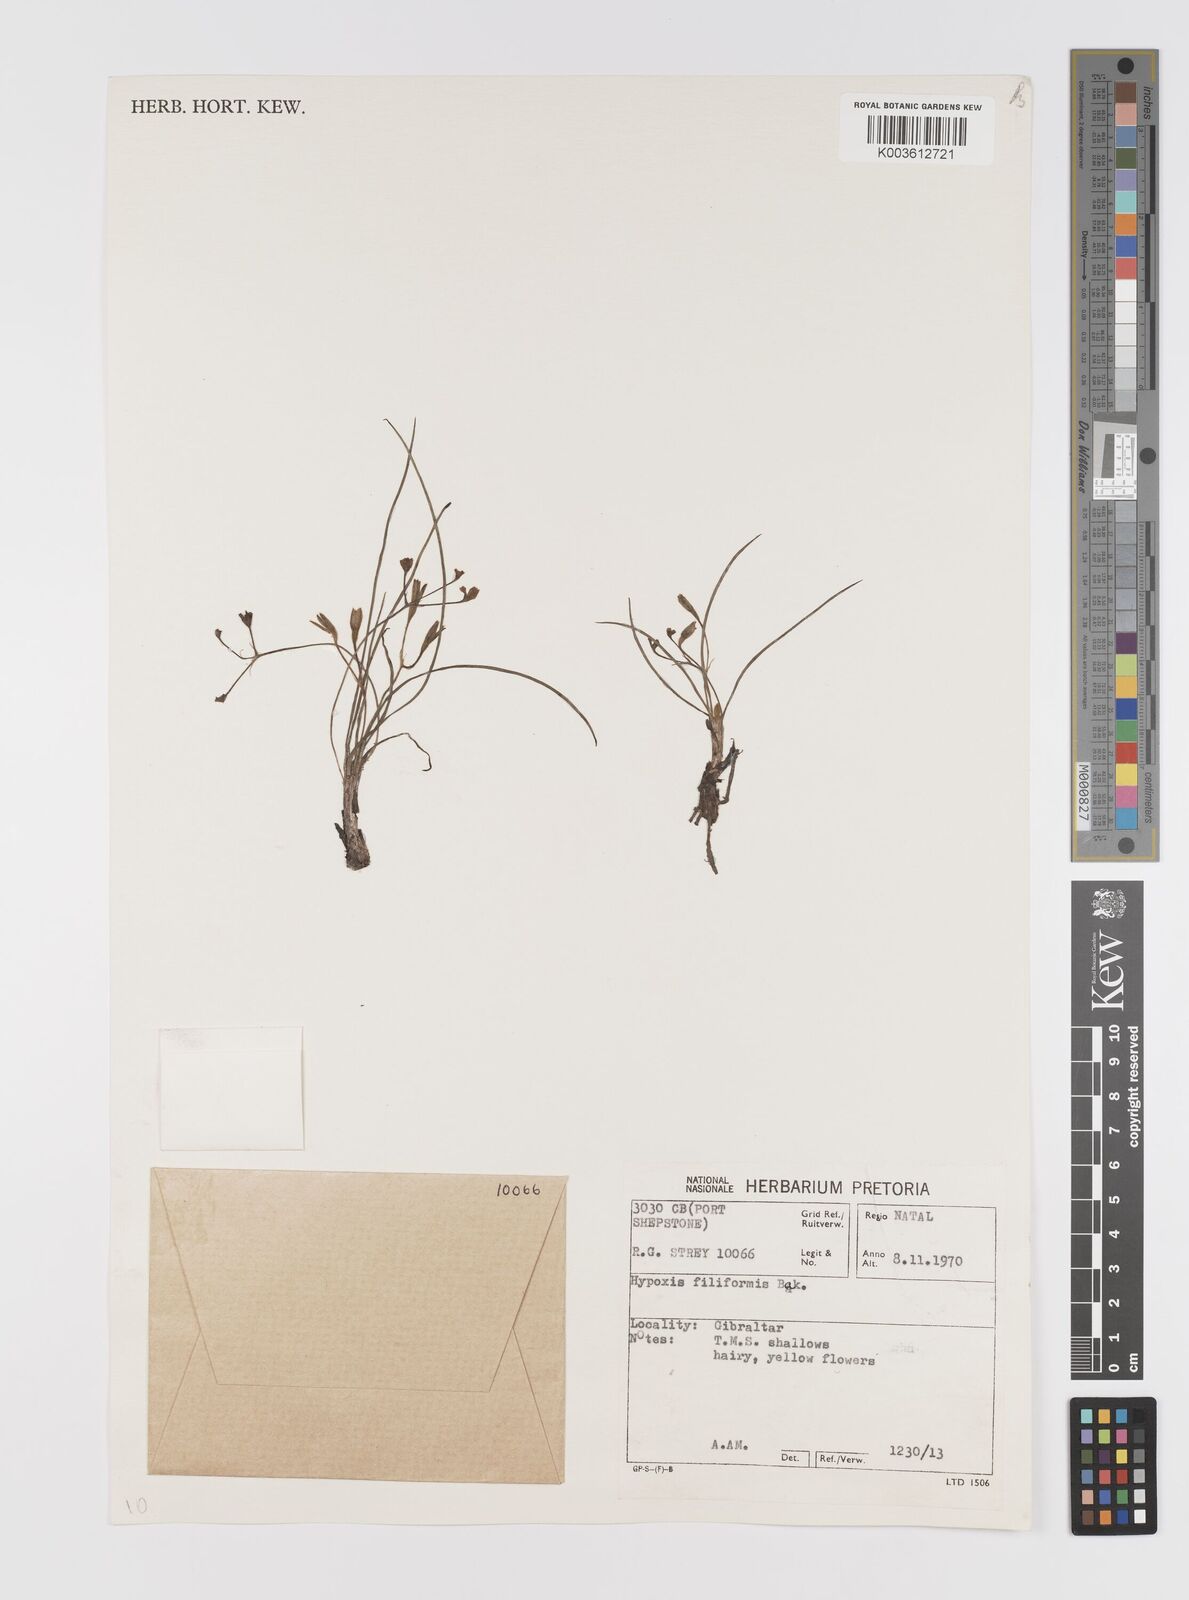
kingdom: Plantae
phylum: Tracheophyta
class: Liliopsida
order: Asparagales
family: Hypoxidaceae
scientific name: Hypoxidaceae
